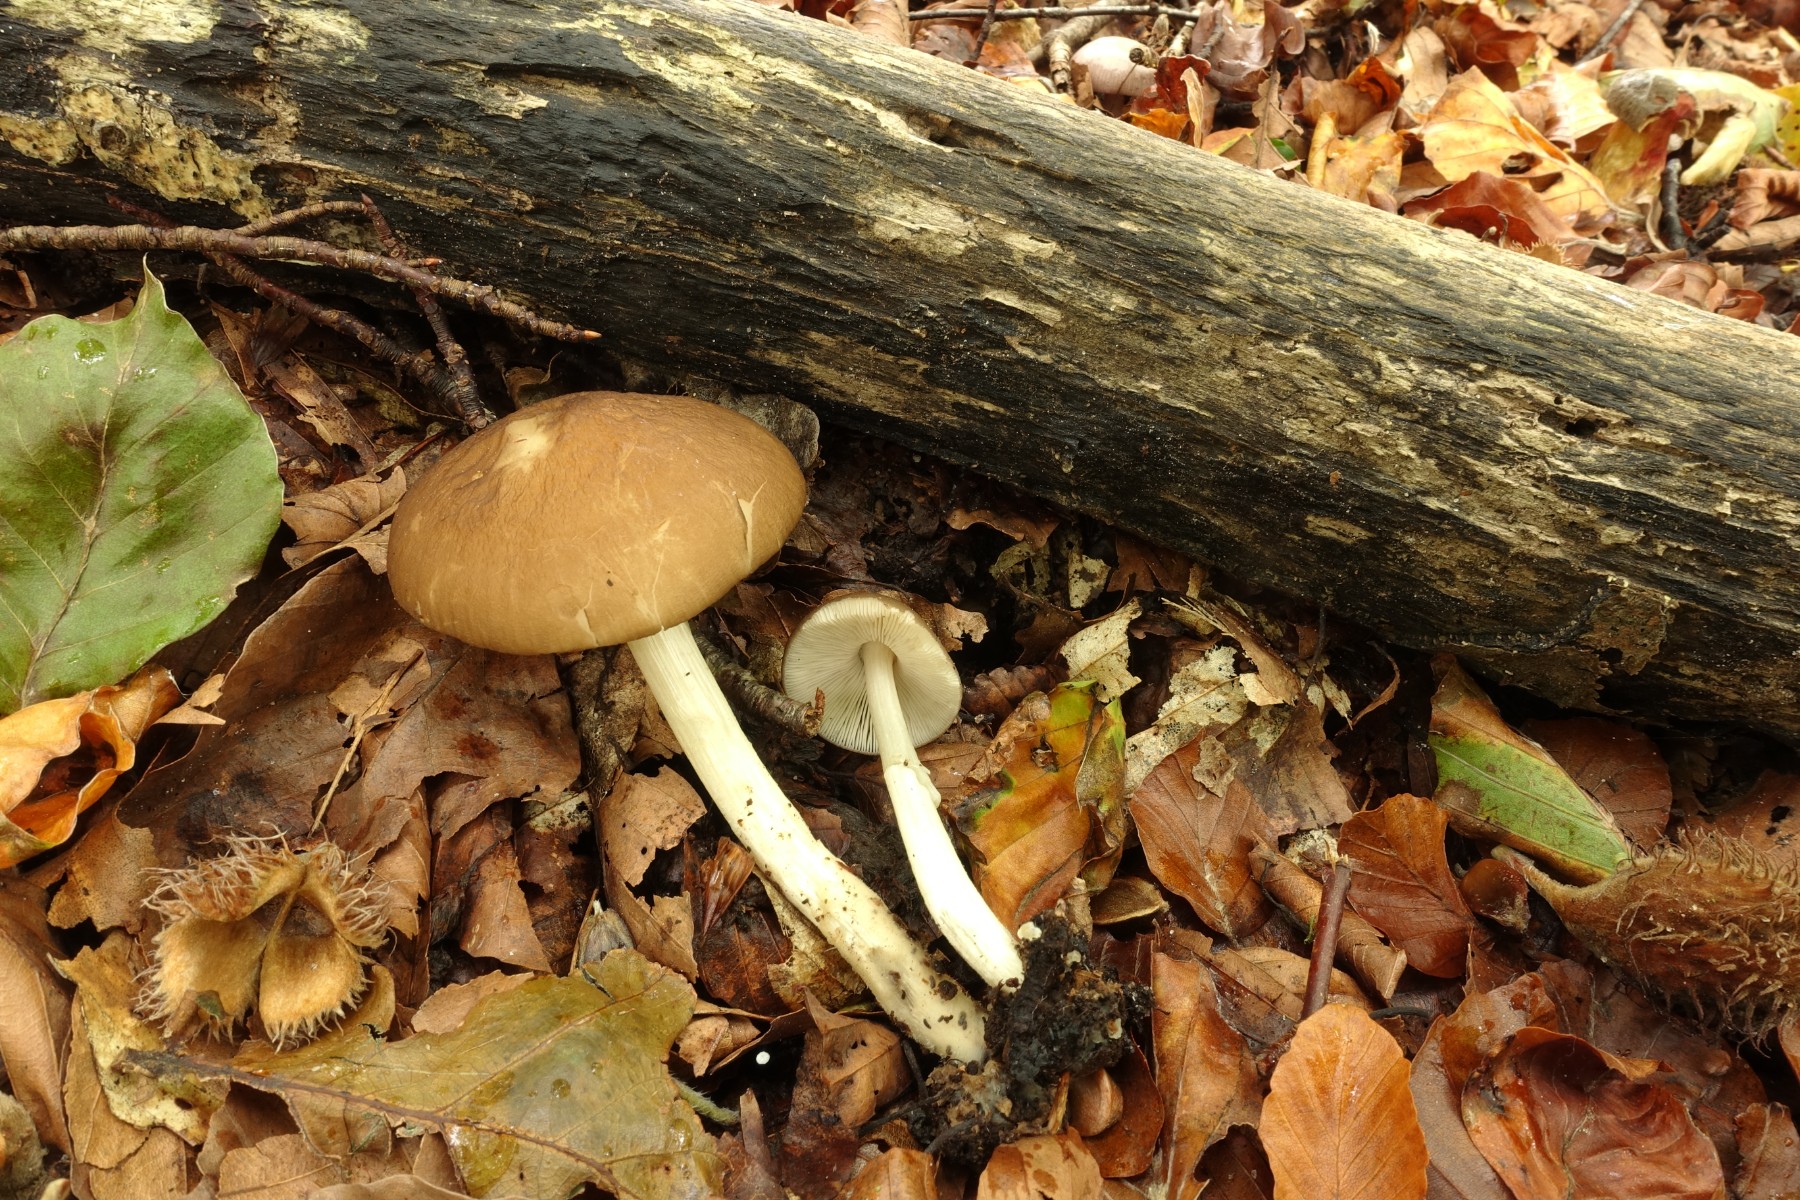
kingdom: Fungi
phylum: Basidiomycota
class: Agaricomycetes
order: Agaricales
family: Pluteaceae
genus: Pluteus
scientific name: Pluteus phlebophorus
